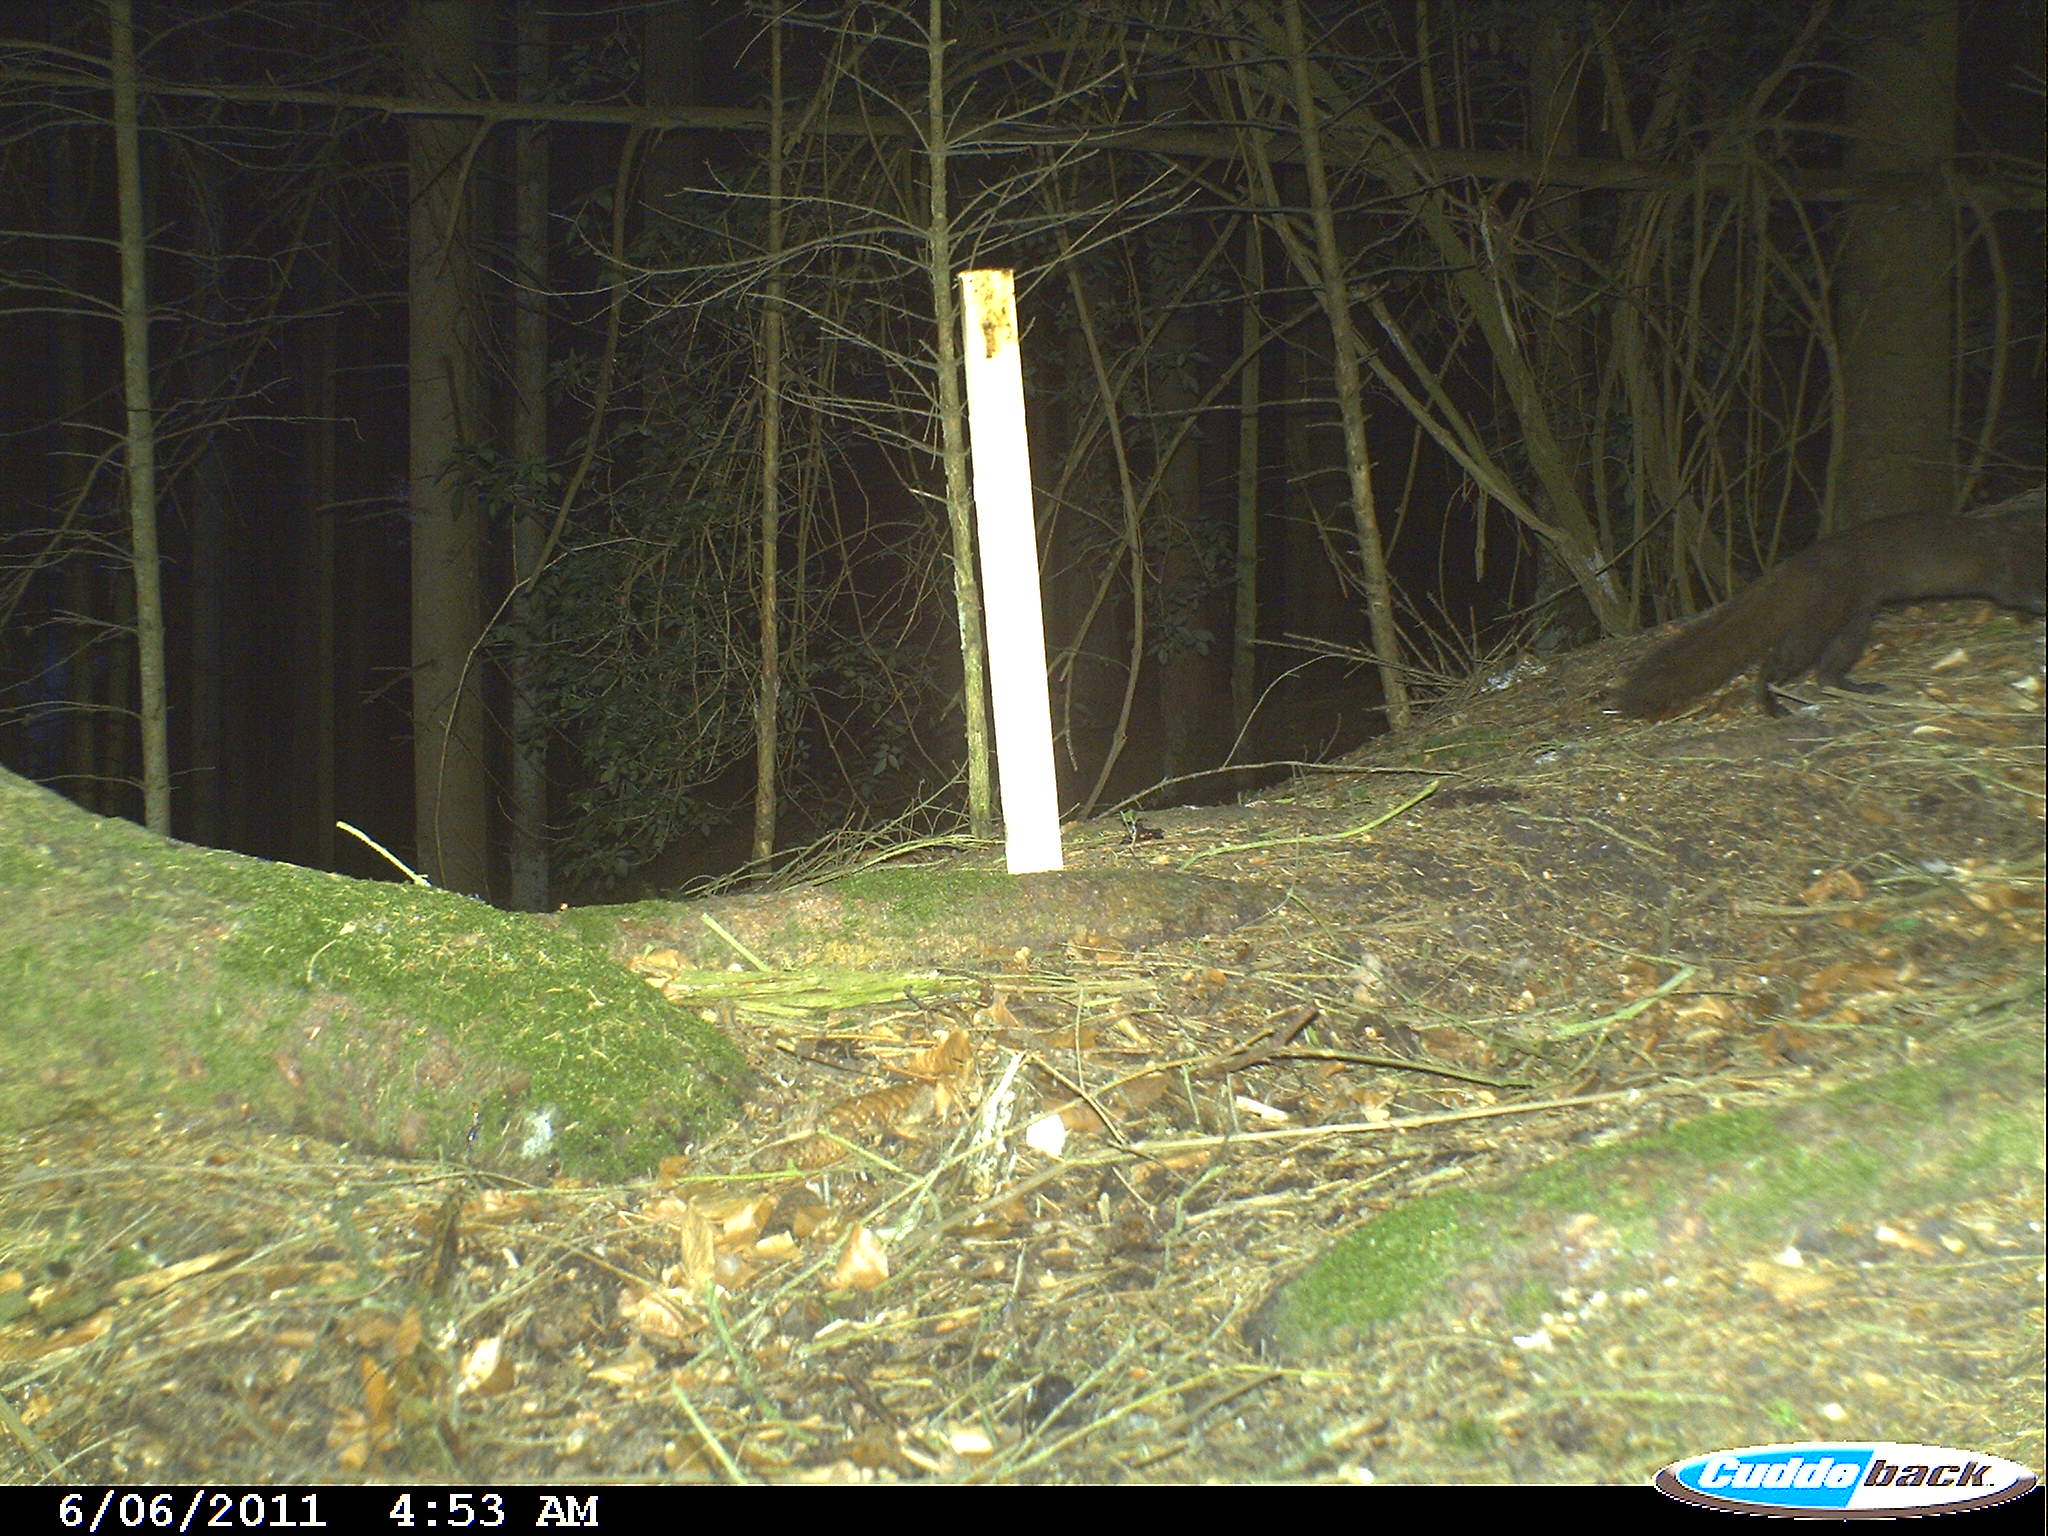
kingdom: Animalia
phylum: Chordata
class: Mammalia
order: Carnivora
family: Mustelidae
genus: Martes
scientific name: Martes
